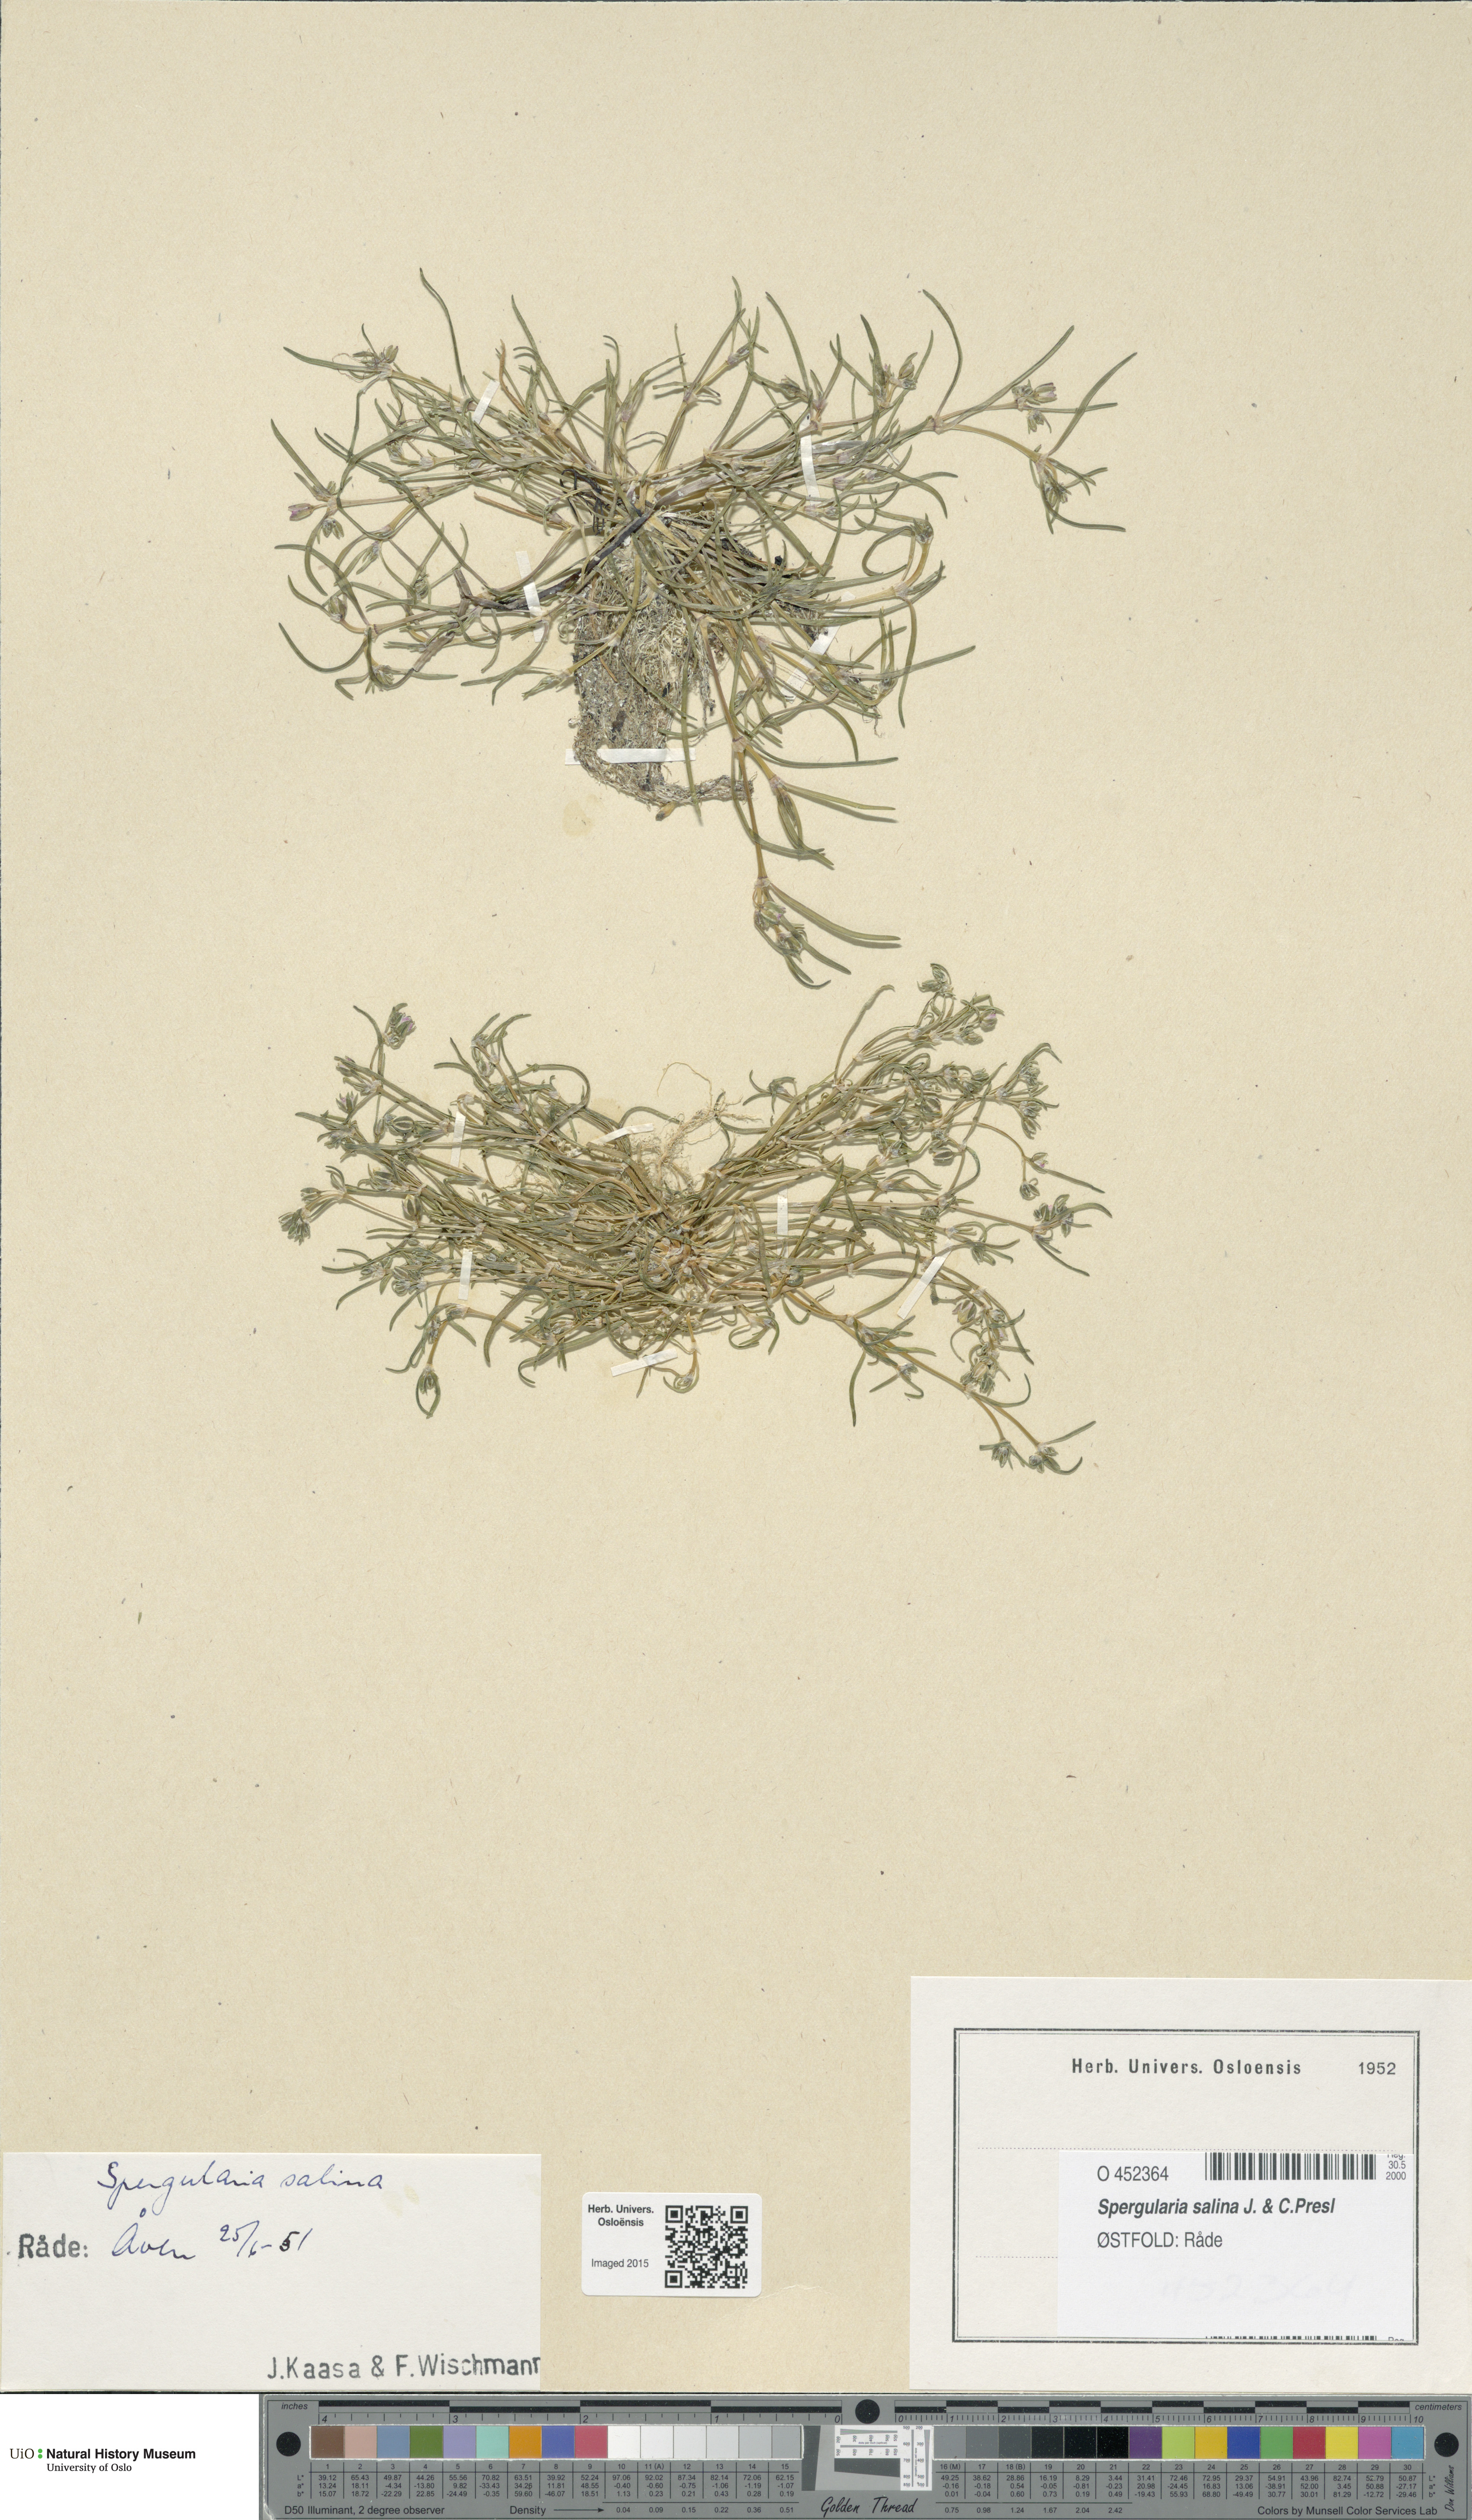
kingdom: Plantae
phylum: Tracheophyta
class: Magnoliopsida
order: Caryophyllales
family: Caryophyllaceae
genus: Spergularia
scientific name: Spergularia marina
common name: Lesser sea-spurrey
